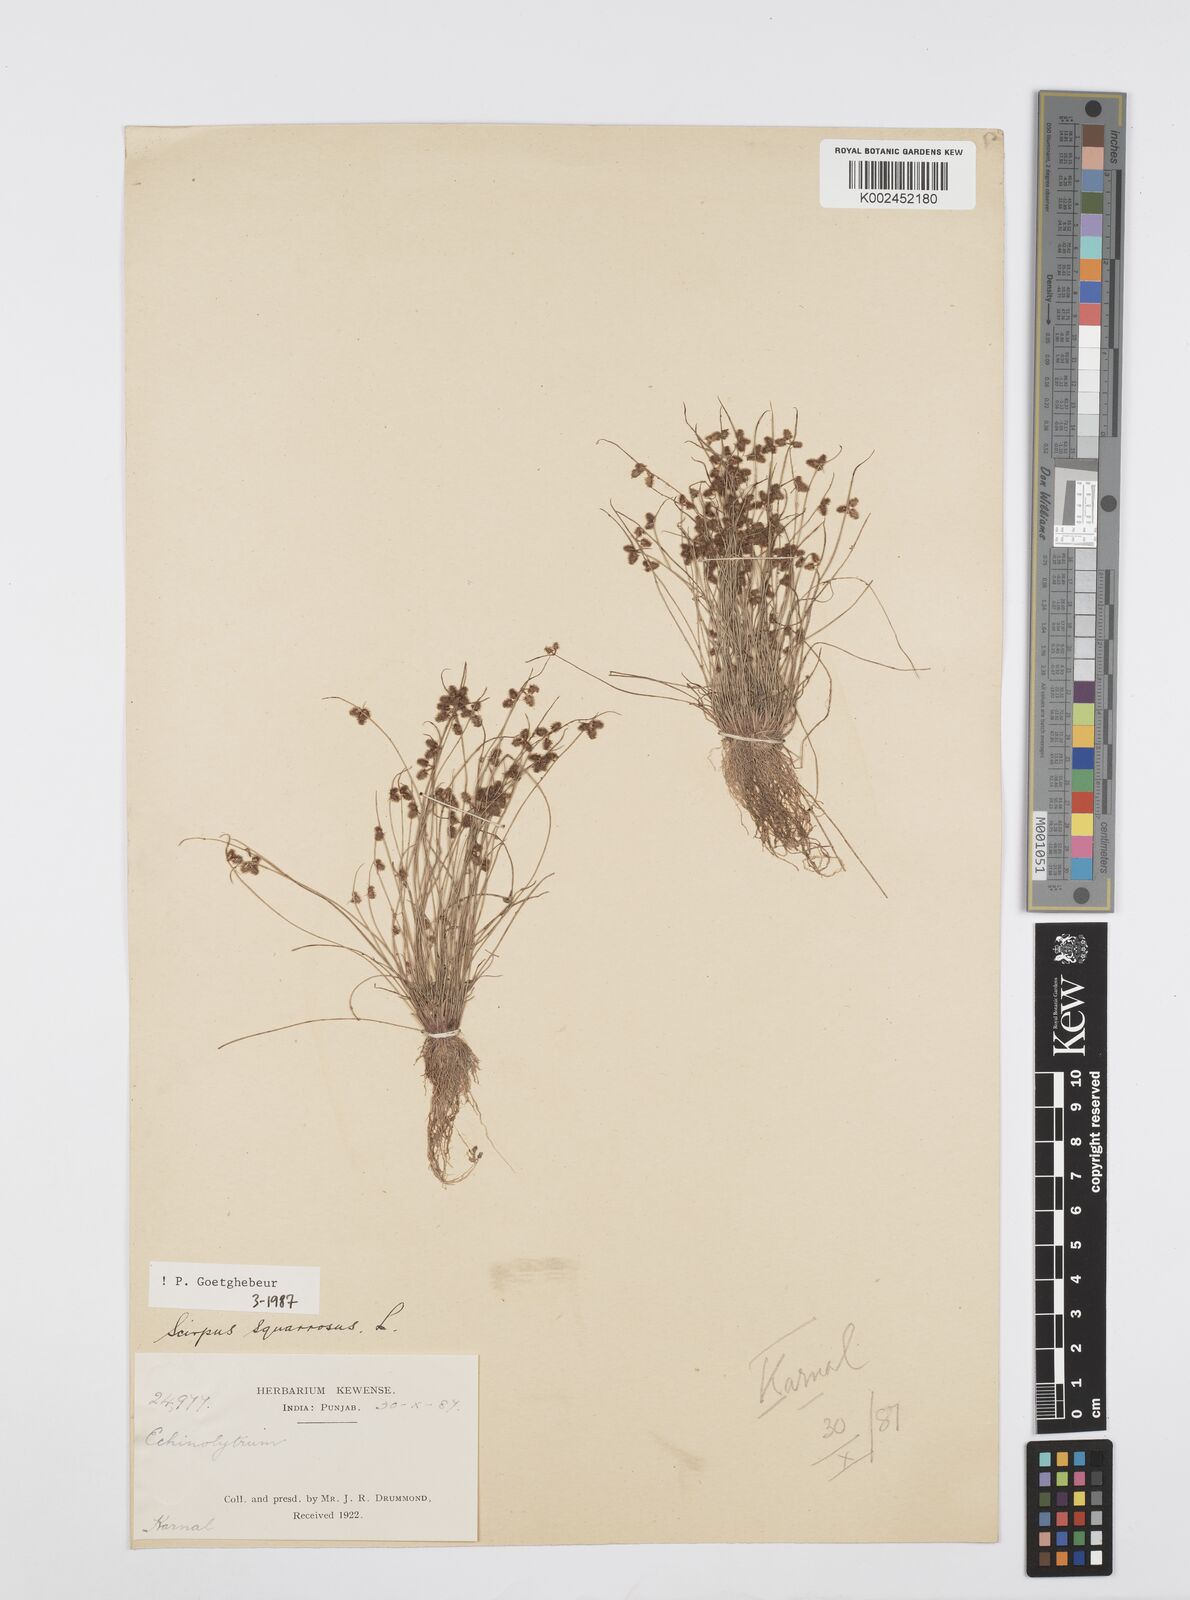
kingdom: Plantae
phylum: Tracheophyta
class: Liliopsida
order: Poales
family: Cyperaceae
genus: Cyperus
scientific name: Cyperus squarrosus
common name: Awned cyperus
